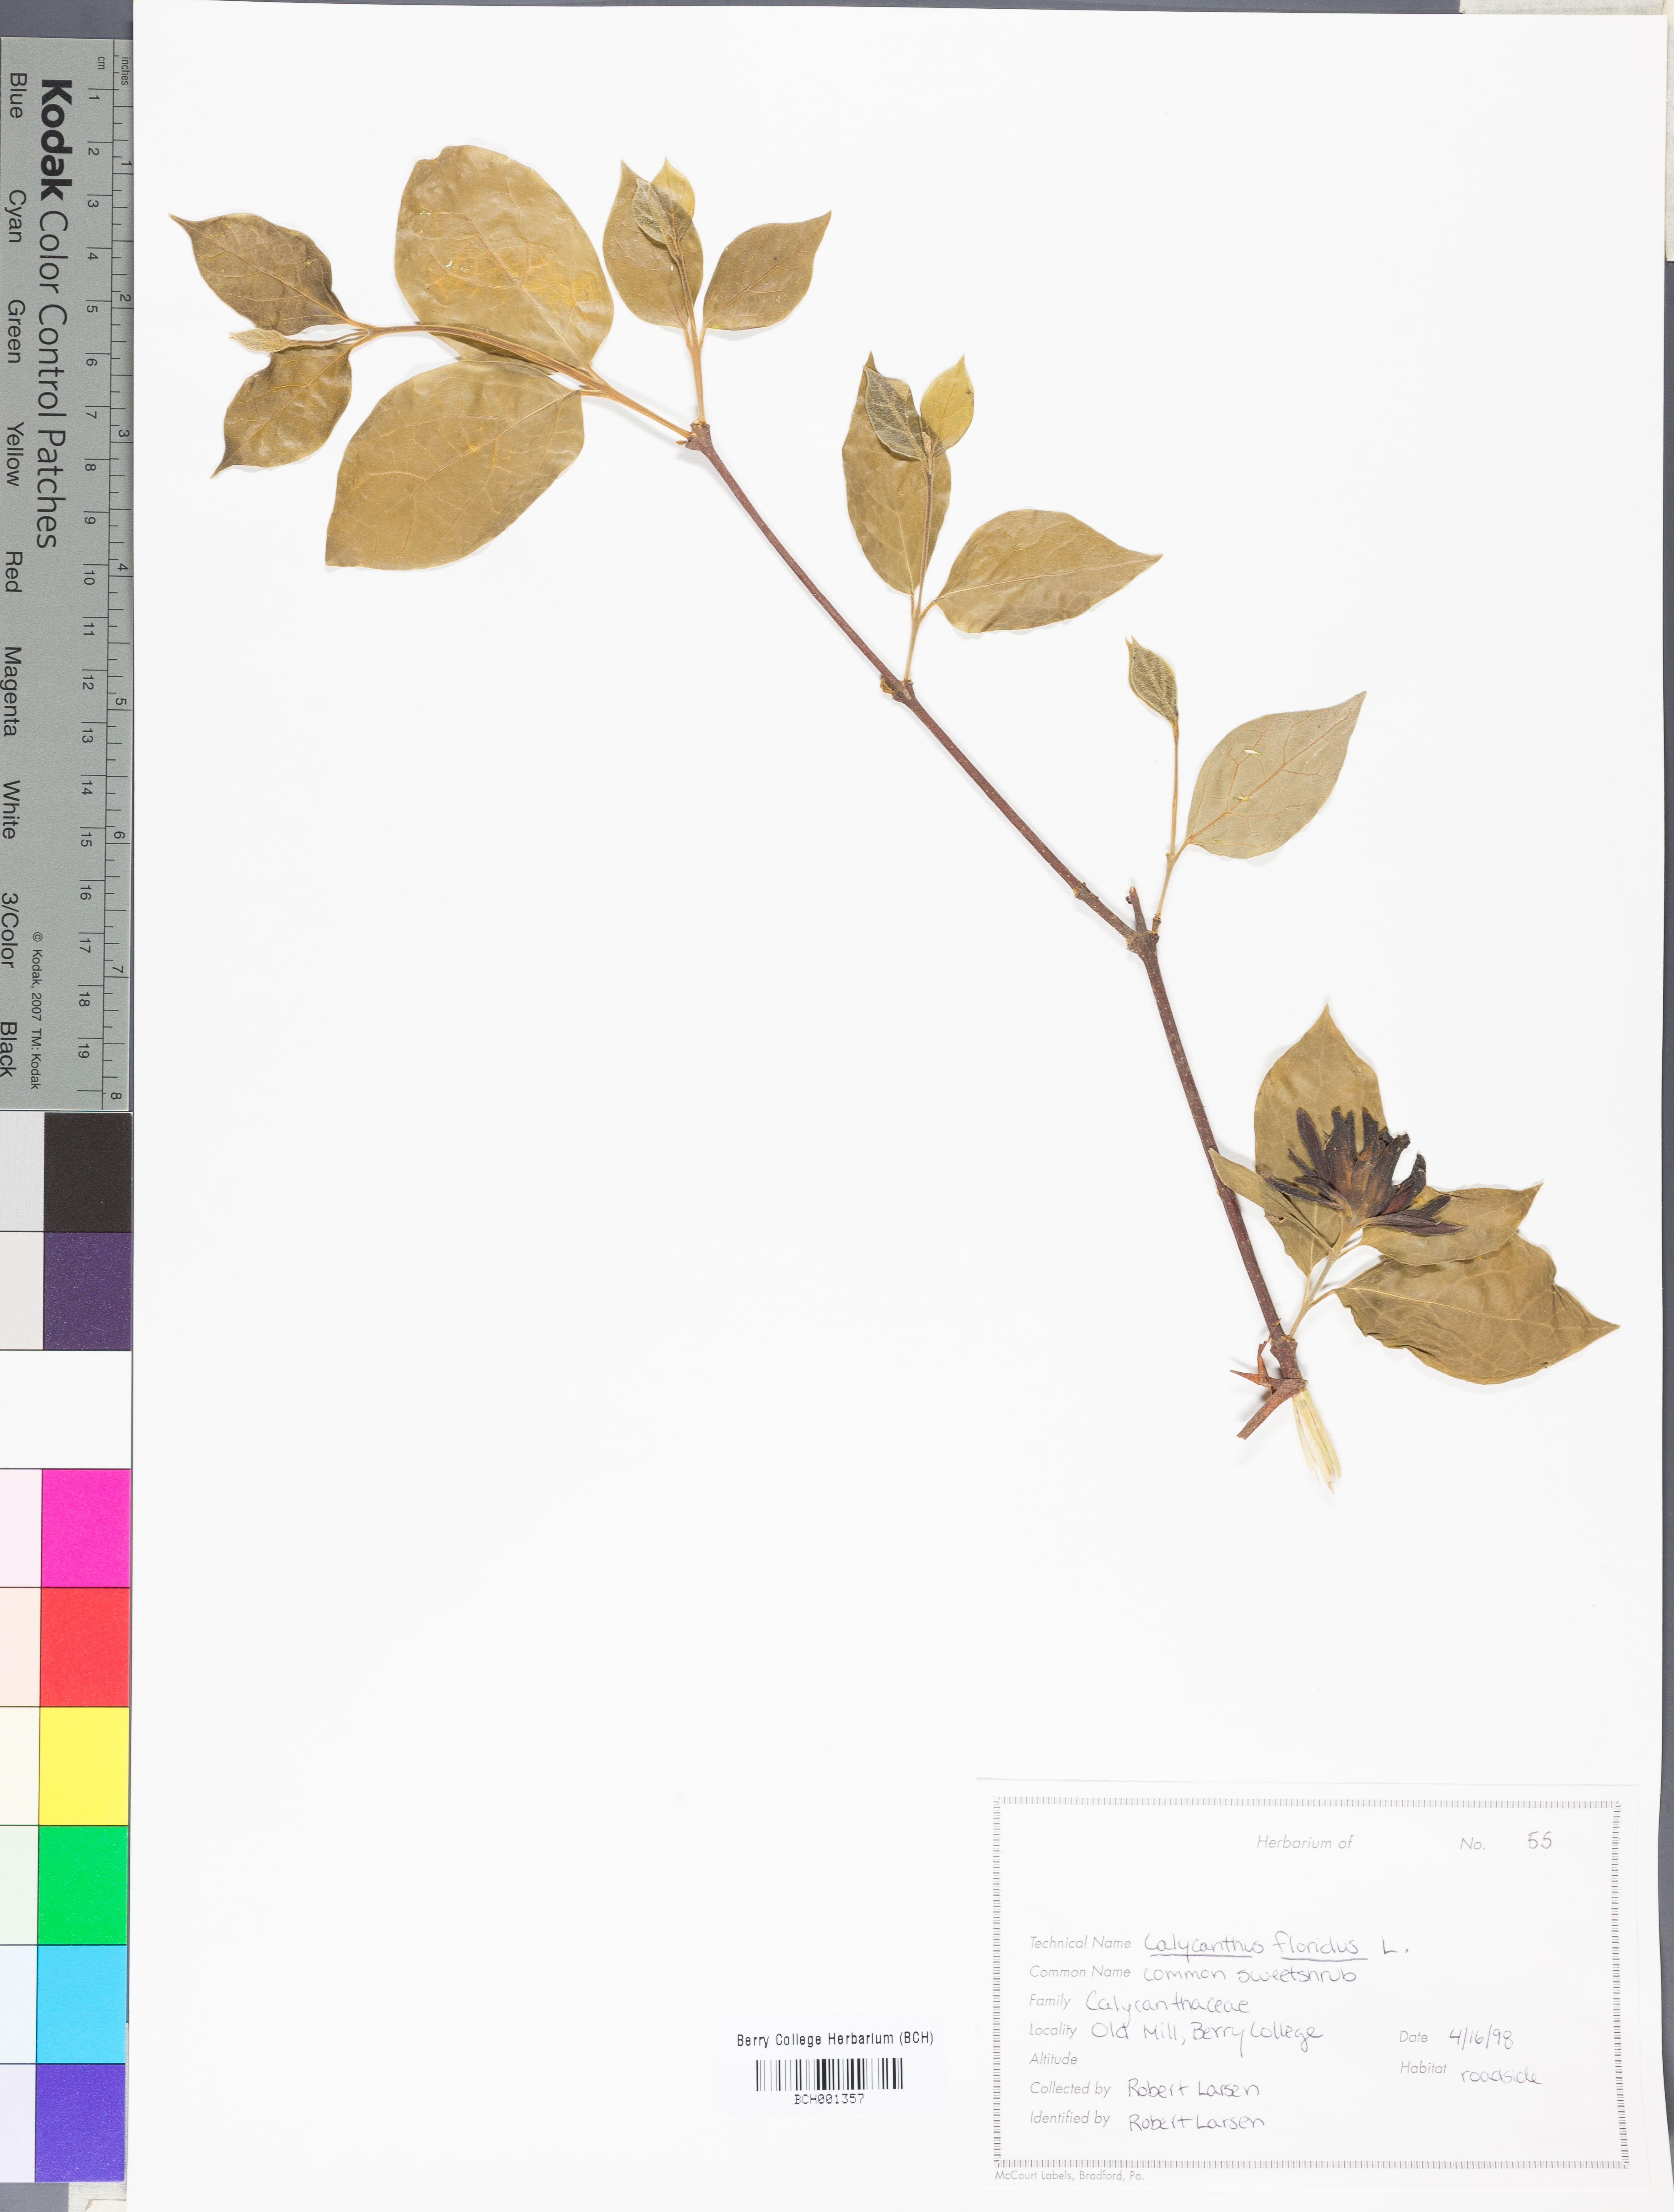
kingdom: Plantae
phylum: Tracheophyta
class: Magnoliopsida
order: Laurales
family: Calycanthaceae
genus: Calycanthus
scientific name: Calycanthus floridus
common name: Carolina-allspice
